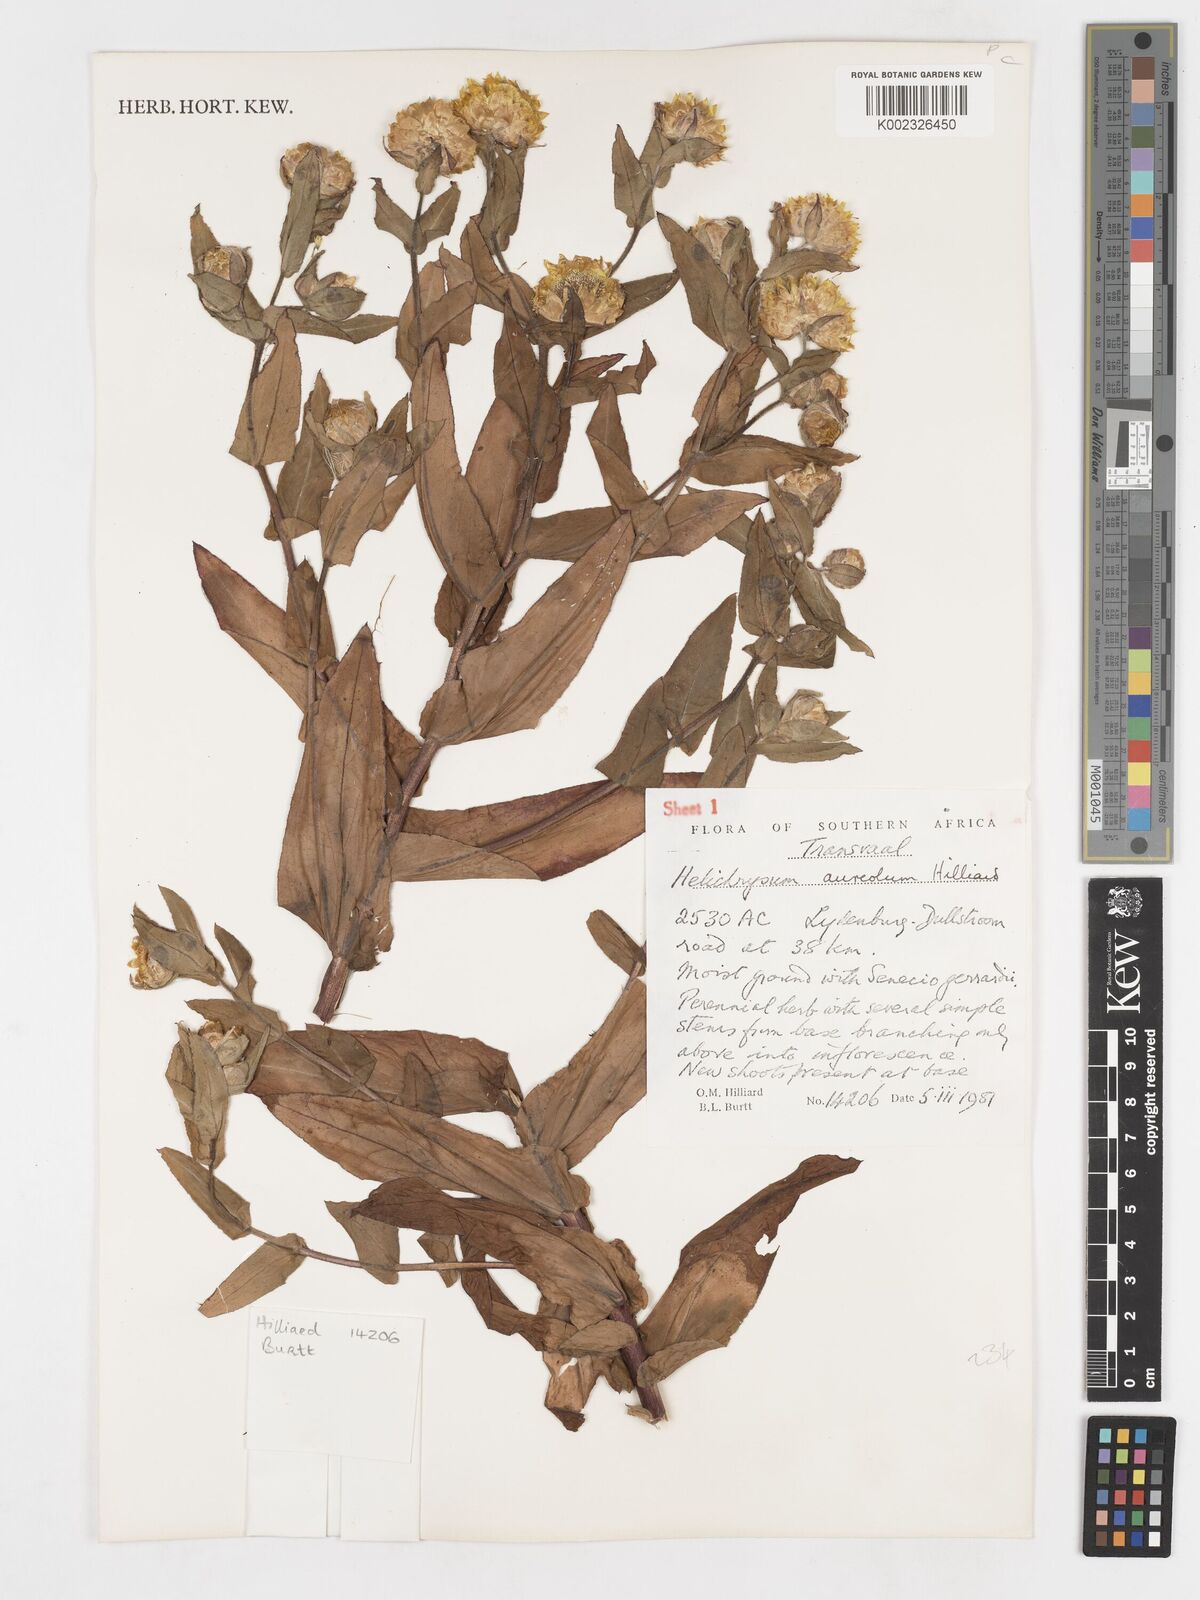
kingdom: Plantae
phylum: Tracheophyta
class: Magnoliopsida
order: Asterales
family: Asteraceae
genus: Helichrysum
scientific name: Helichrysum aureolum
